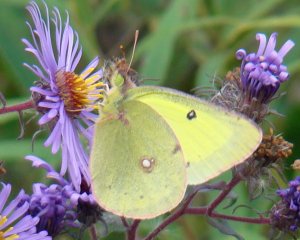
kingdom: Animalia
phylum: Arthropoda
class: Insecta
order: Lepidoptera
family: Pieridae
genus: Colias
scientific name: Colias philodice
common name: Clouded Sulphur
